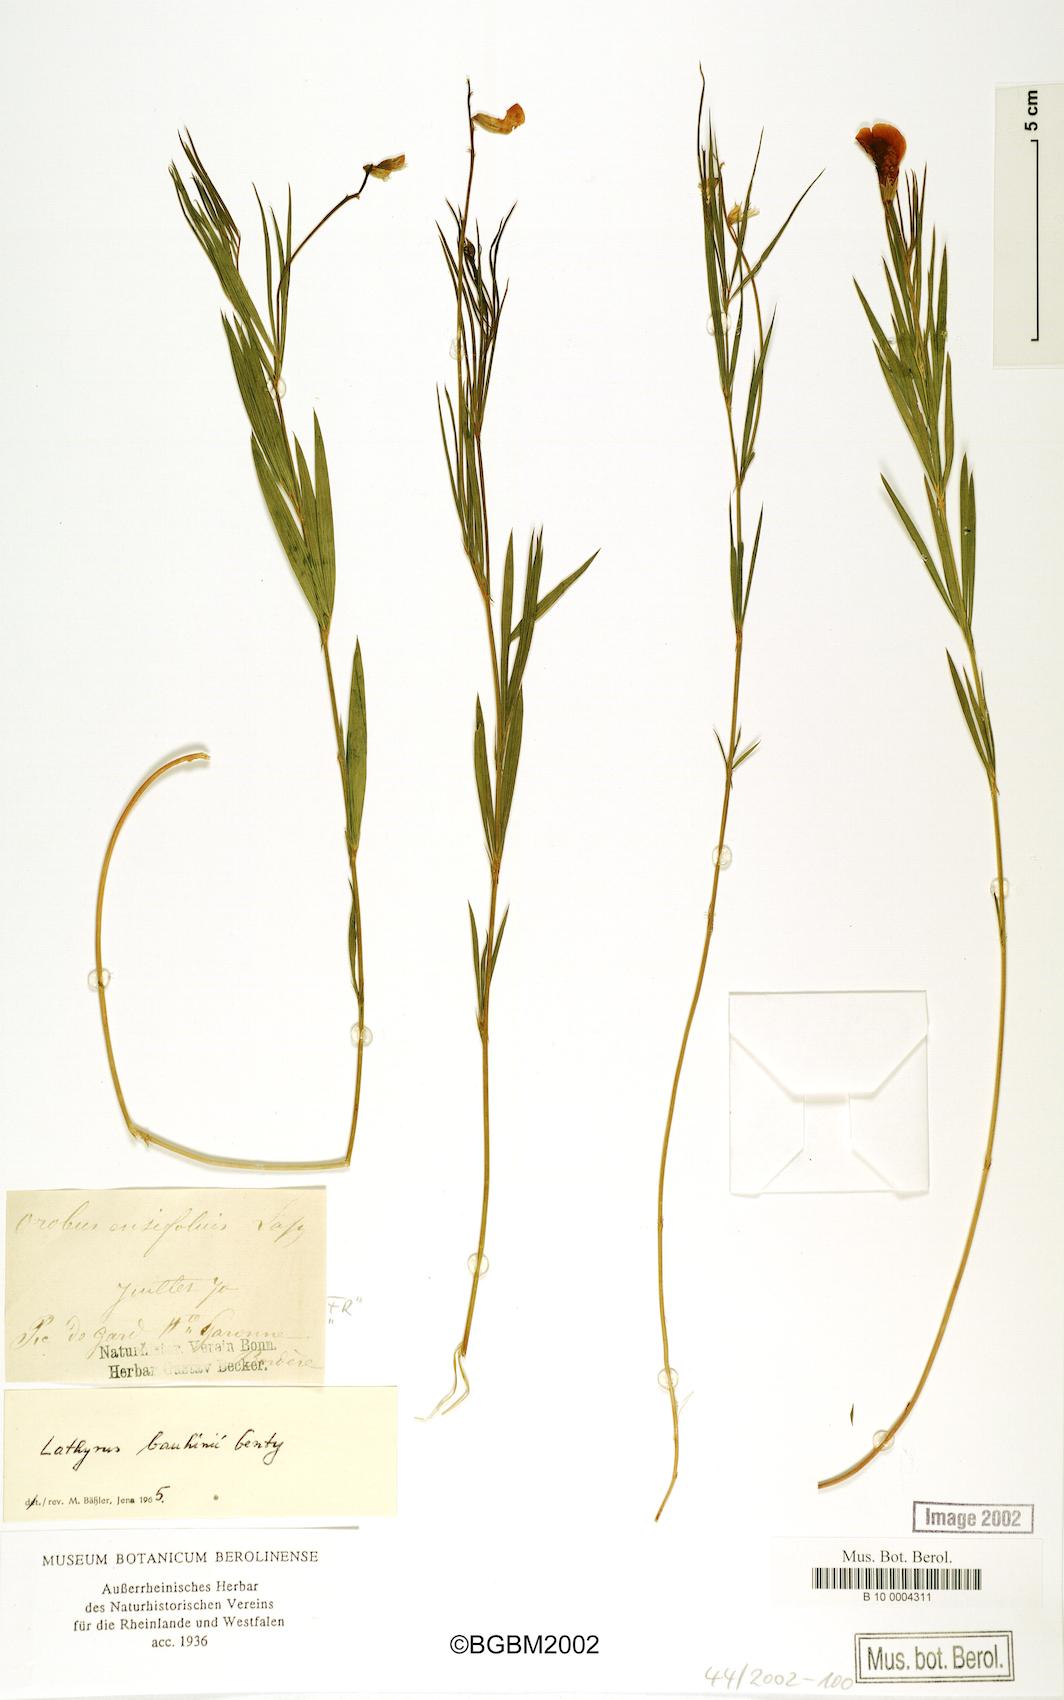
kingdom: Plantae
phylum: Tracheophyta
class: Magnoliopsida
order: Fabales
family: Fabaceae
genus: Lathyrus
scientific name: Lathyrus bauhini
